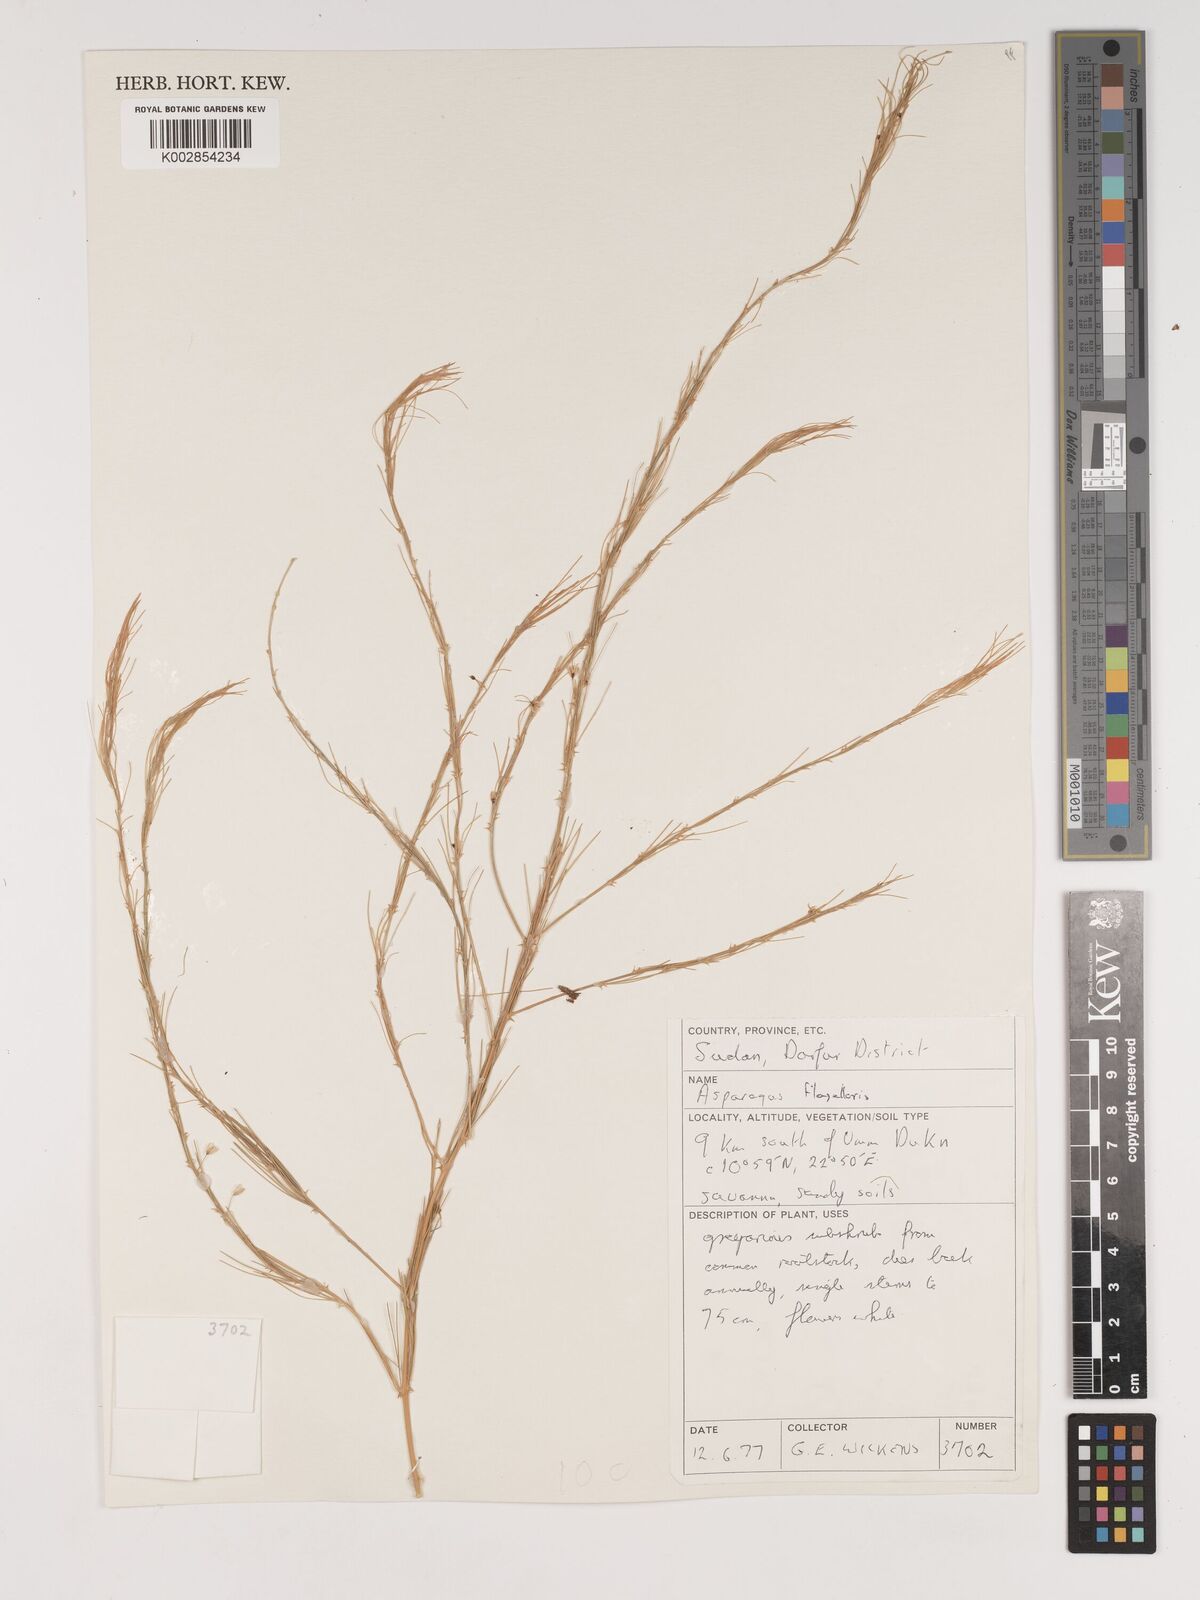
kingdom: Plantae
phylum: Tracheophyta
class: Liliopsida
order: Asparagales
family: Asparagaceae
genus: Asparagus
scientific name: Asparagus flagellaris
